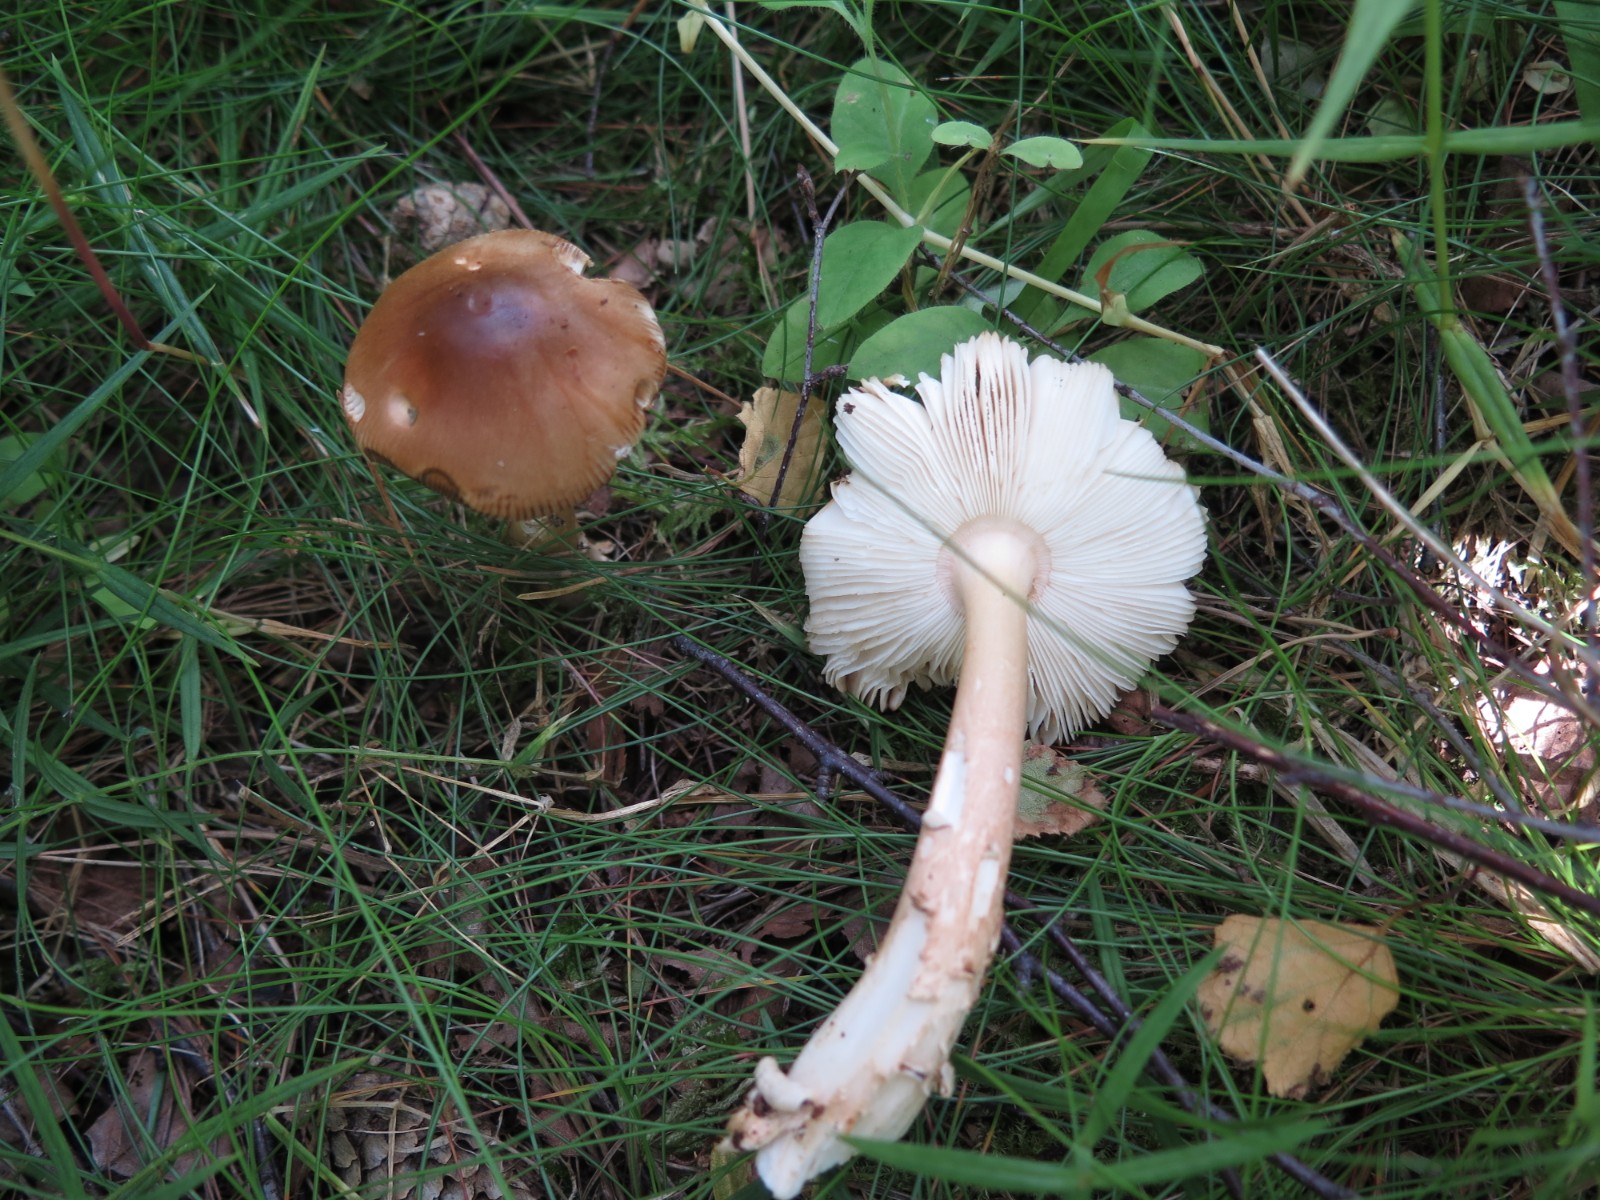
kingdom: Fungi
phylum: Basidiomycota
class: Agaricomycetes
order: Agaricales
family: Amanitaceae
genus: Amanita
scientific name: Amanita fulva
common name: brun kam-fluesvamp
